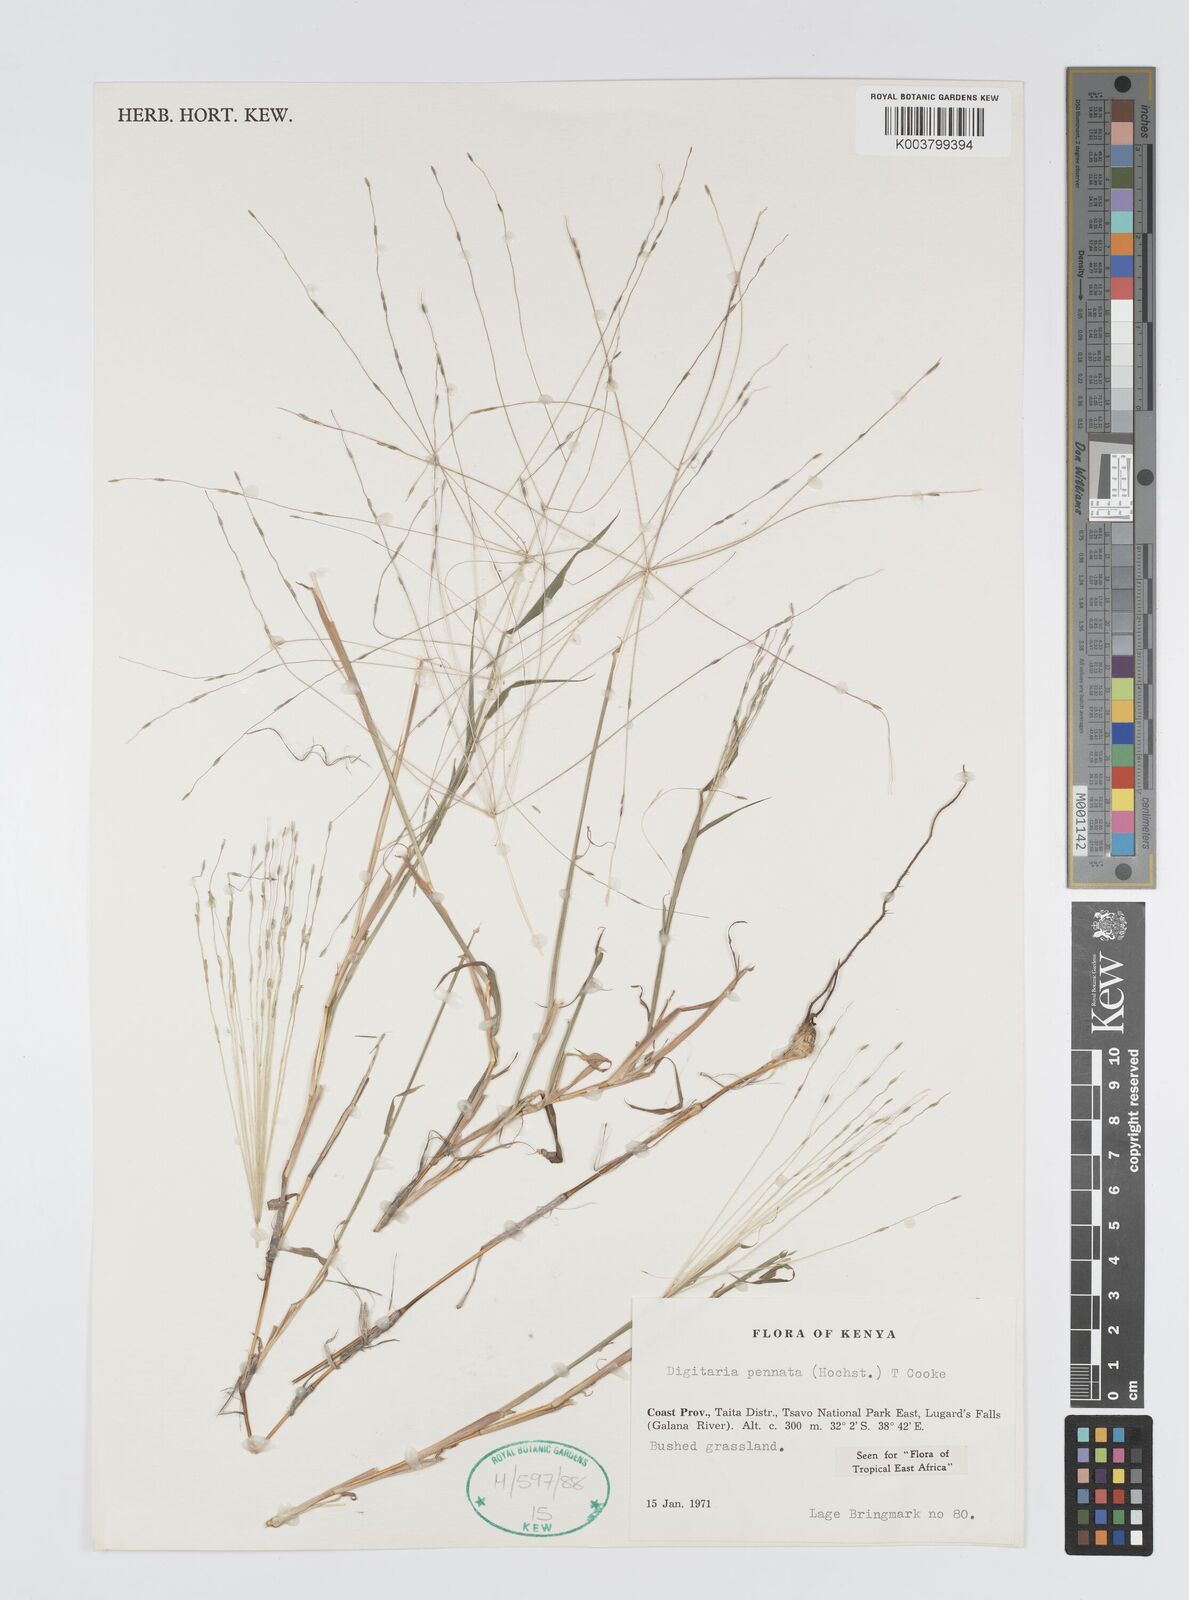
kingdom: Plantae
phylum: Tracheophyta
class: Liliopsida
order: Poales
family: Poaceae
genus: Digitaria
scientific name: Digitaria
